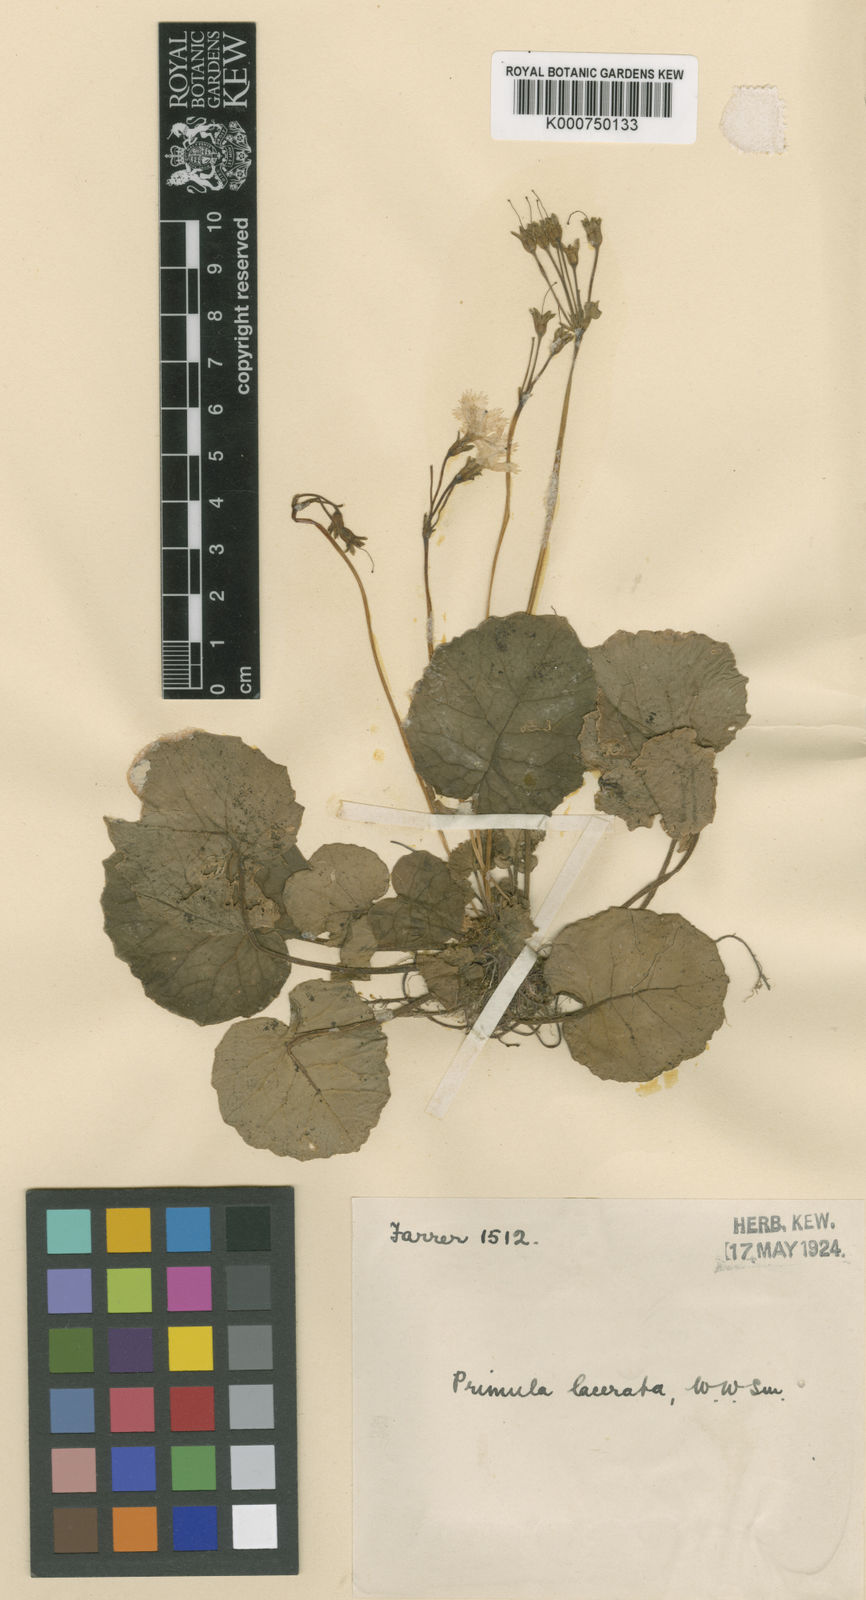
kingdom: Plantae
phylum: Tracheophyta
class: Magnoliopsida
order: Ericales
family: Primulaceae
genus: Primula
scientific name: Primula lacerata
